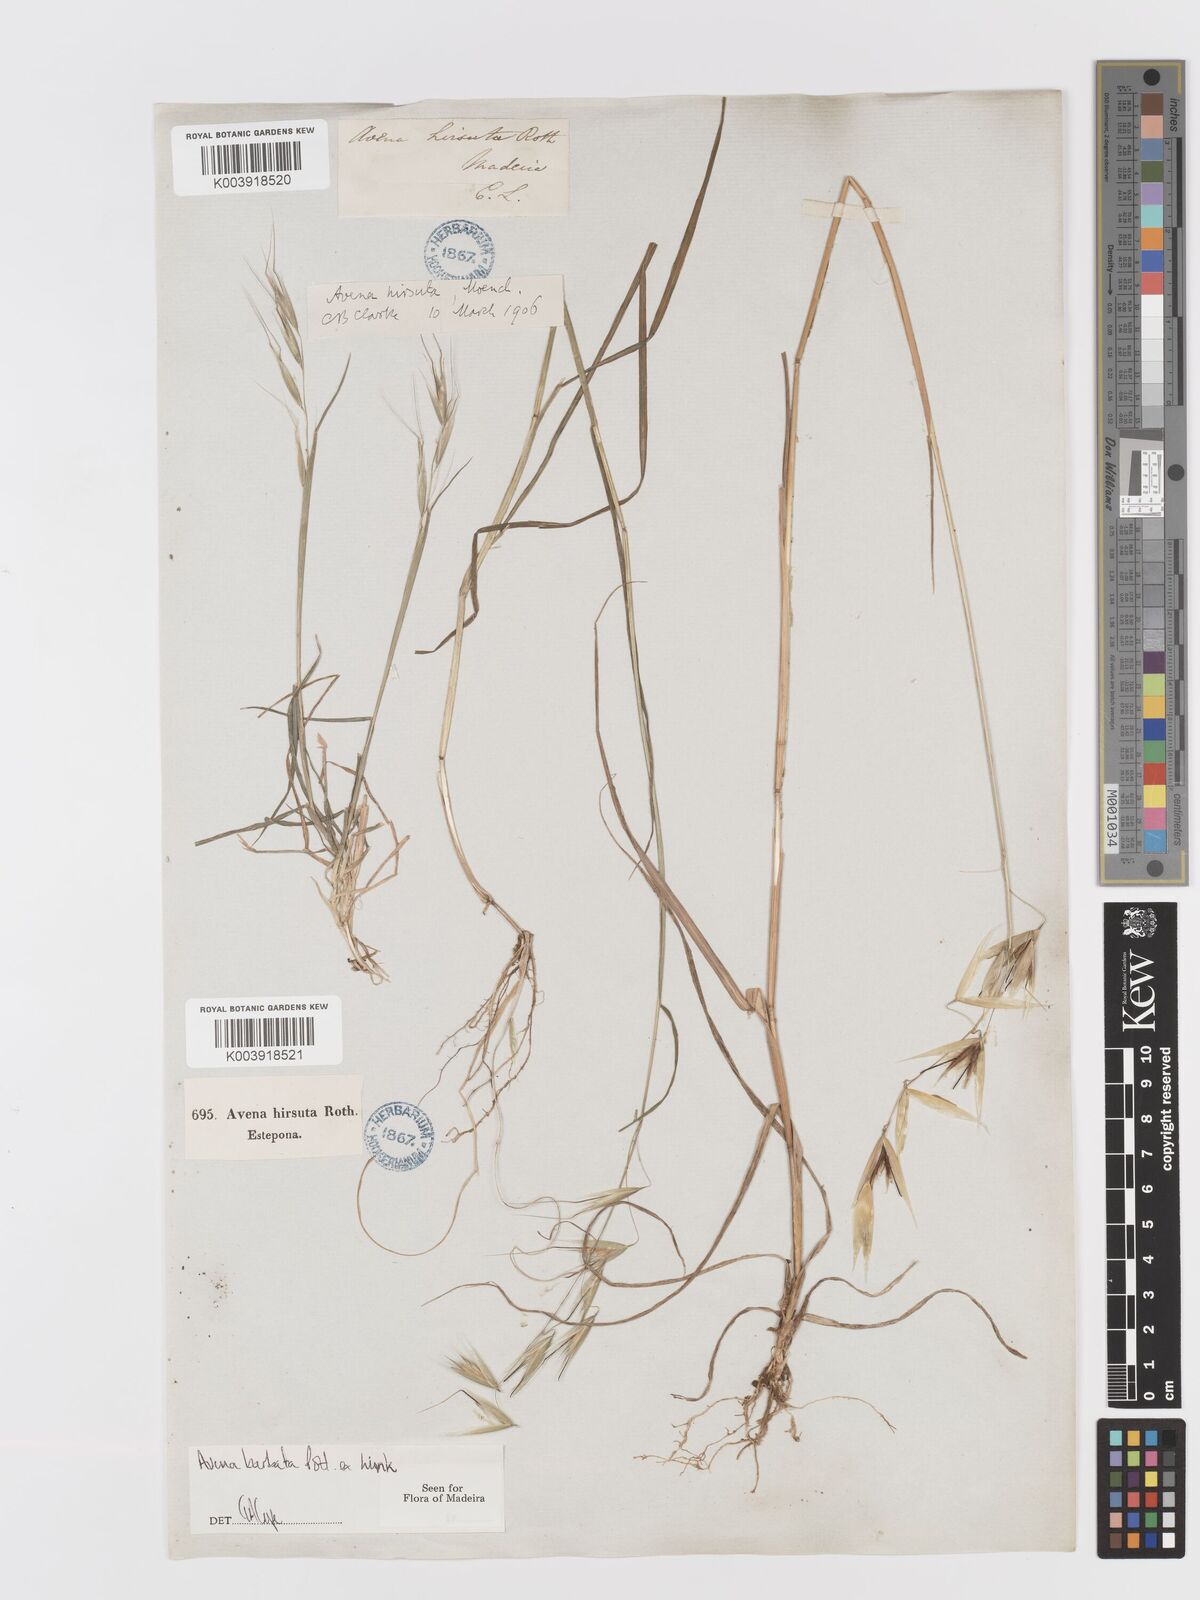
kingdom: Plantae
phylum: Tracheophyta
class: Liliopsida
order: Poales
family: Poaceae
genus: Avena
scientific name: Avena
